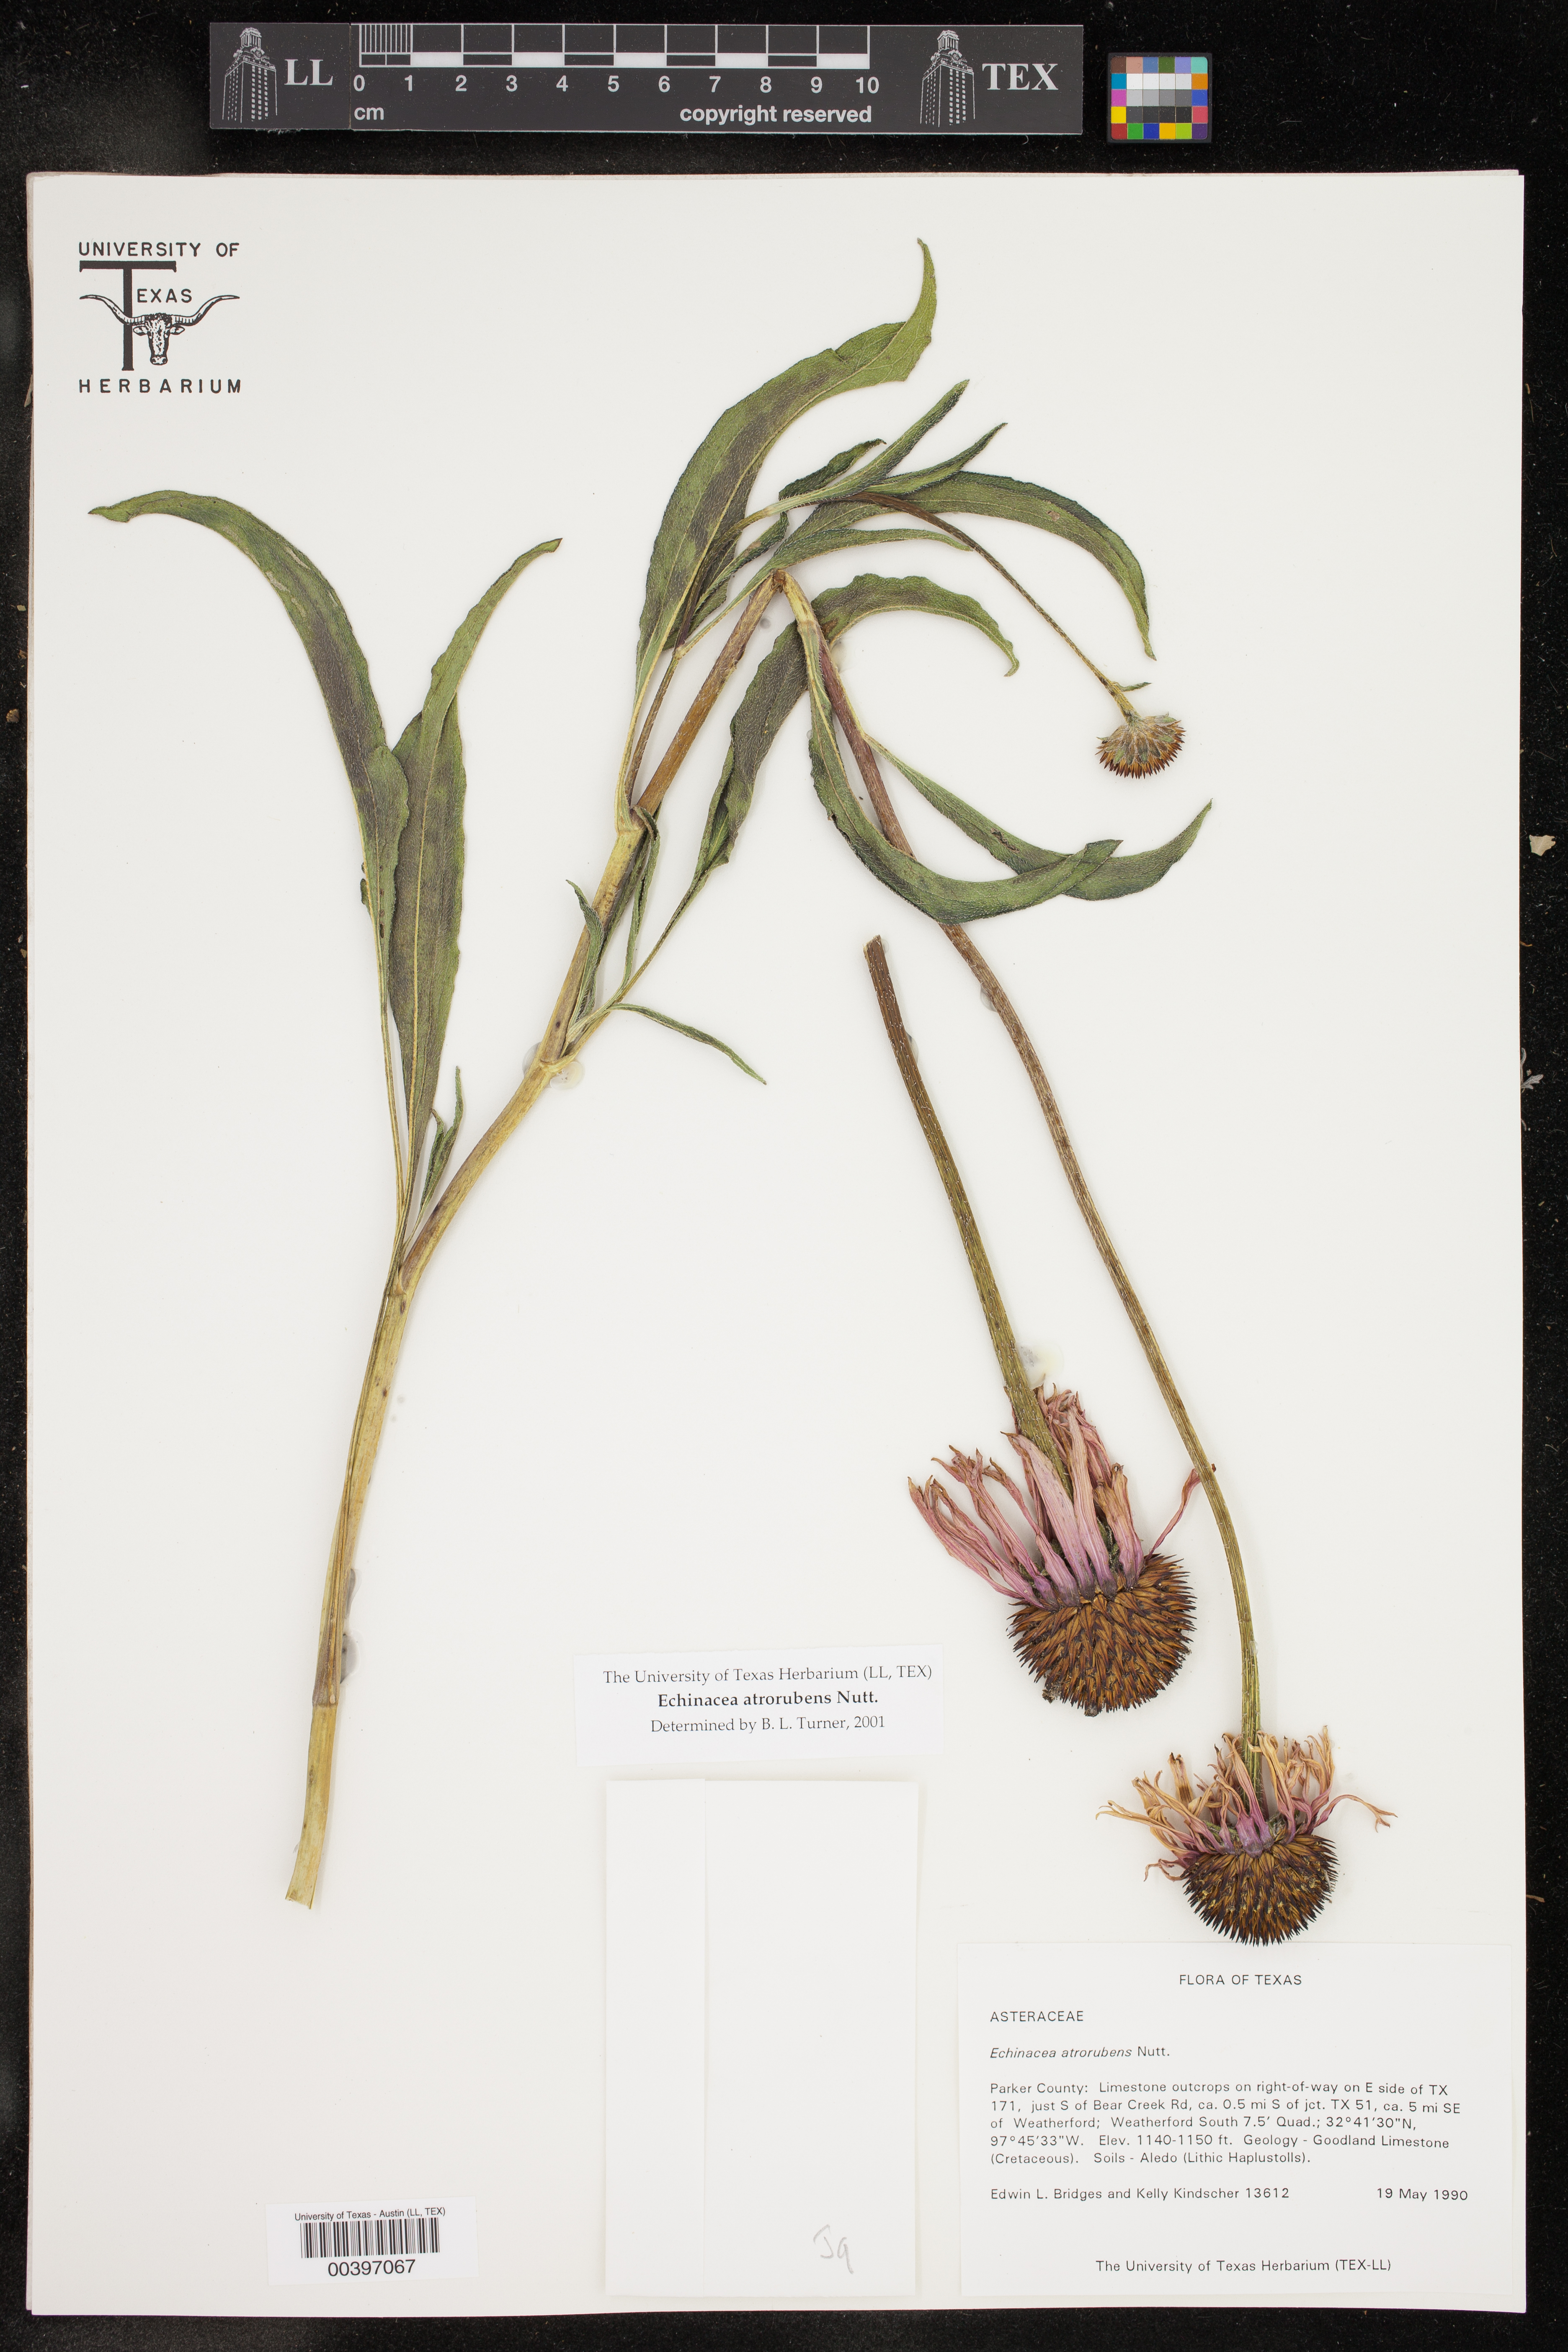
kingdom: Plantae
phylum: Tracheophyta
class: Magnoliopsida
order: Asterales
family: Asteraceae
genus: Echinacea
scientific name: Echinacea atrorubens
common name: Topeka purple-coneflower
